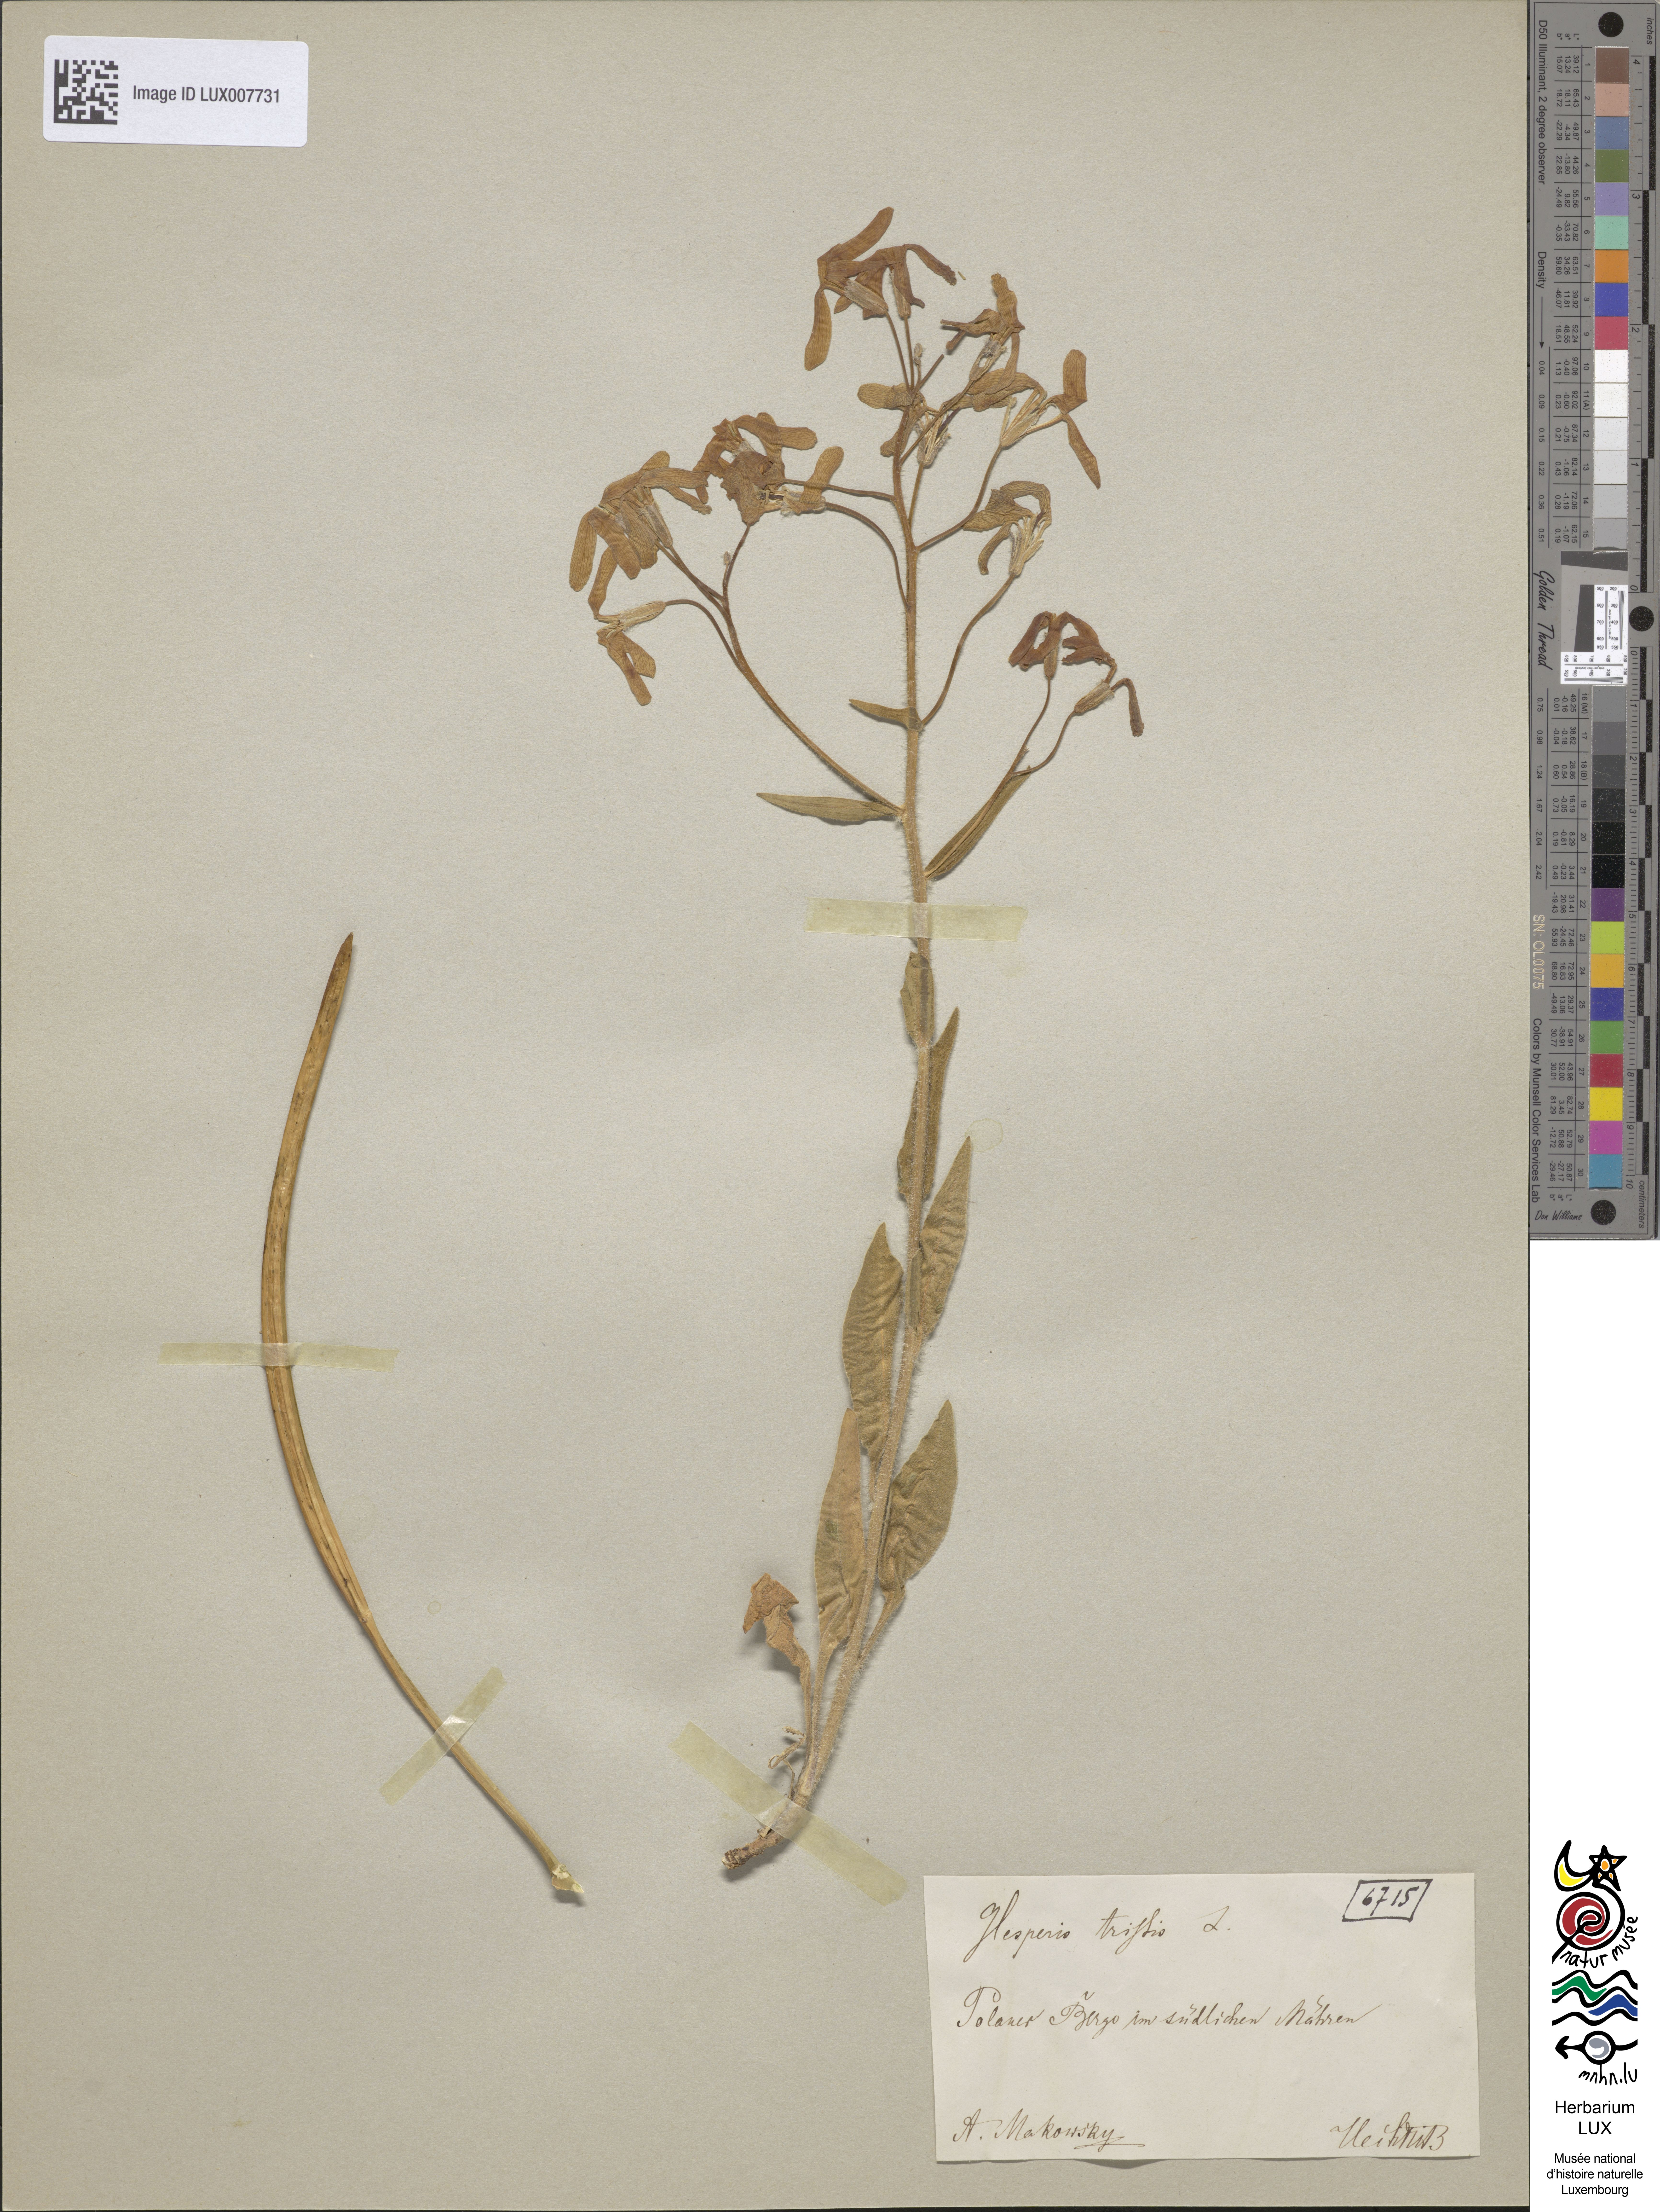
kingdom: Plantae
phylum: Tracheophyta
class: Magnoliopsida
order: Brassicales
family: Brassicaceae
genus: Hesperis
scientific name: Hesperis tristis
